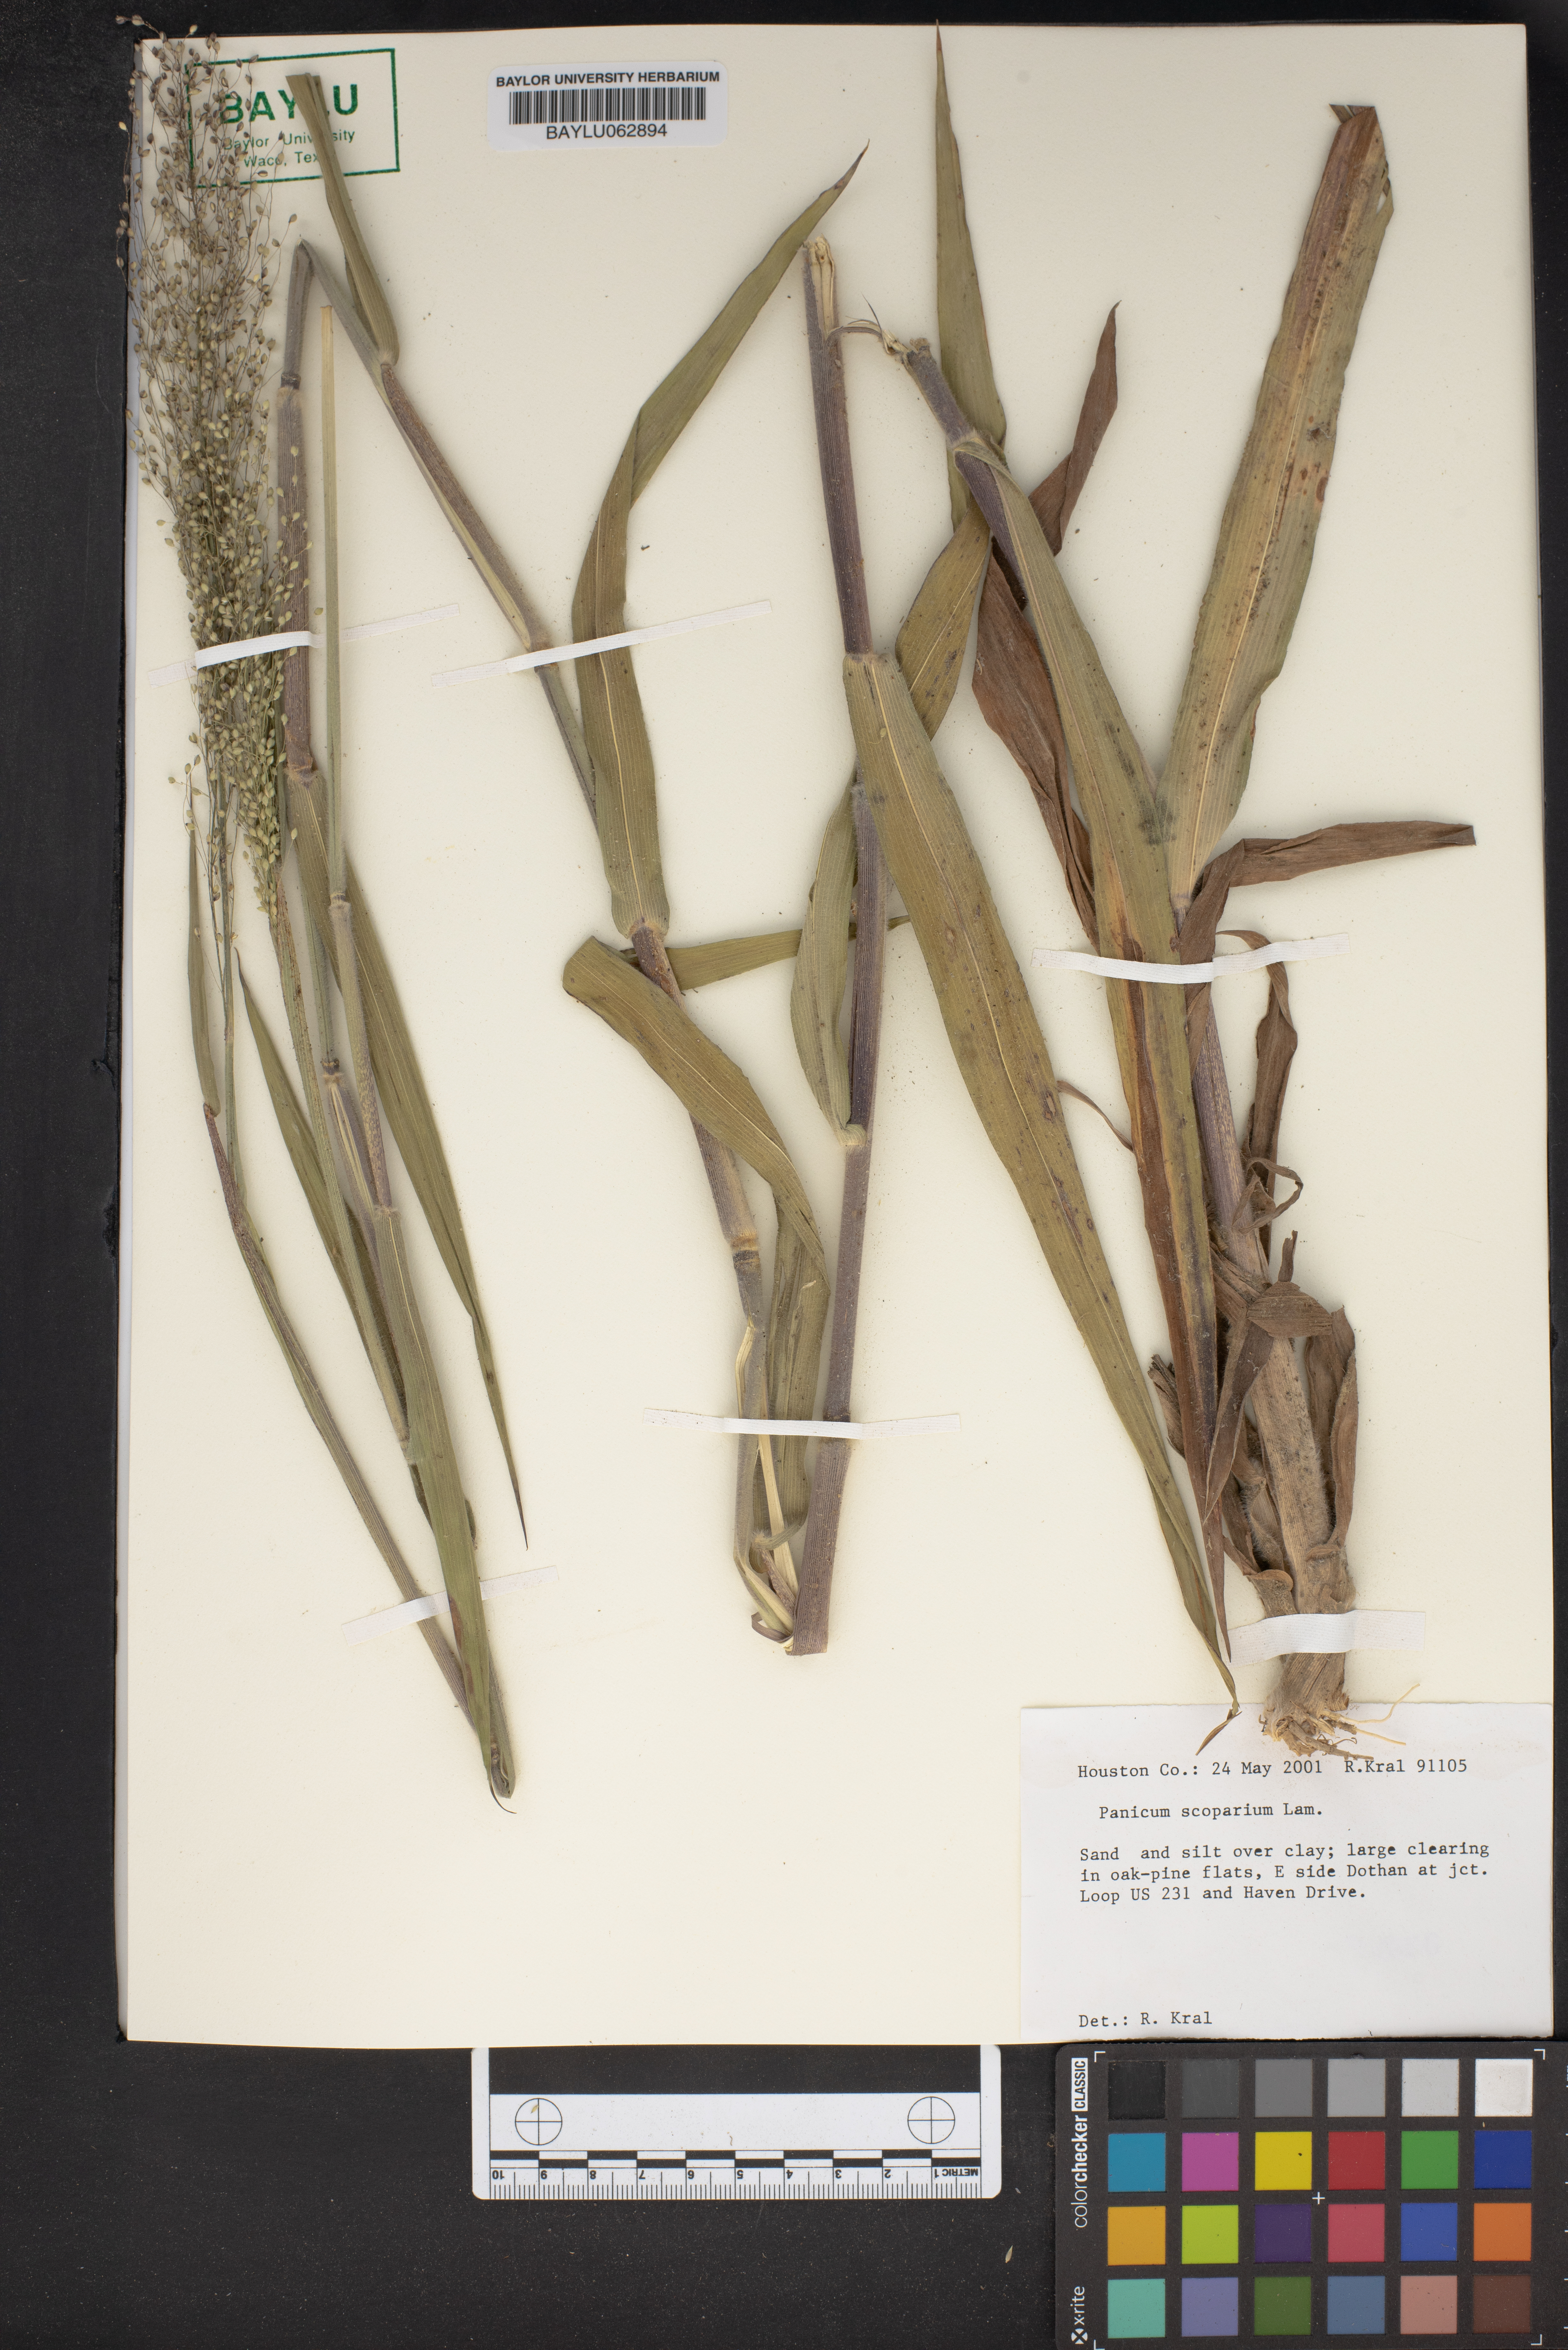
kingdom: Plantae
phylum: Tracheophyta
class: Liliopsida
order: Poales
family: Poaceae
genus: Dichanthelium
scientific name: Dichanthelium scribnerianum
